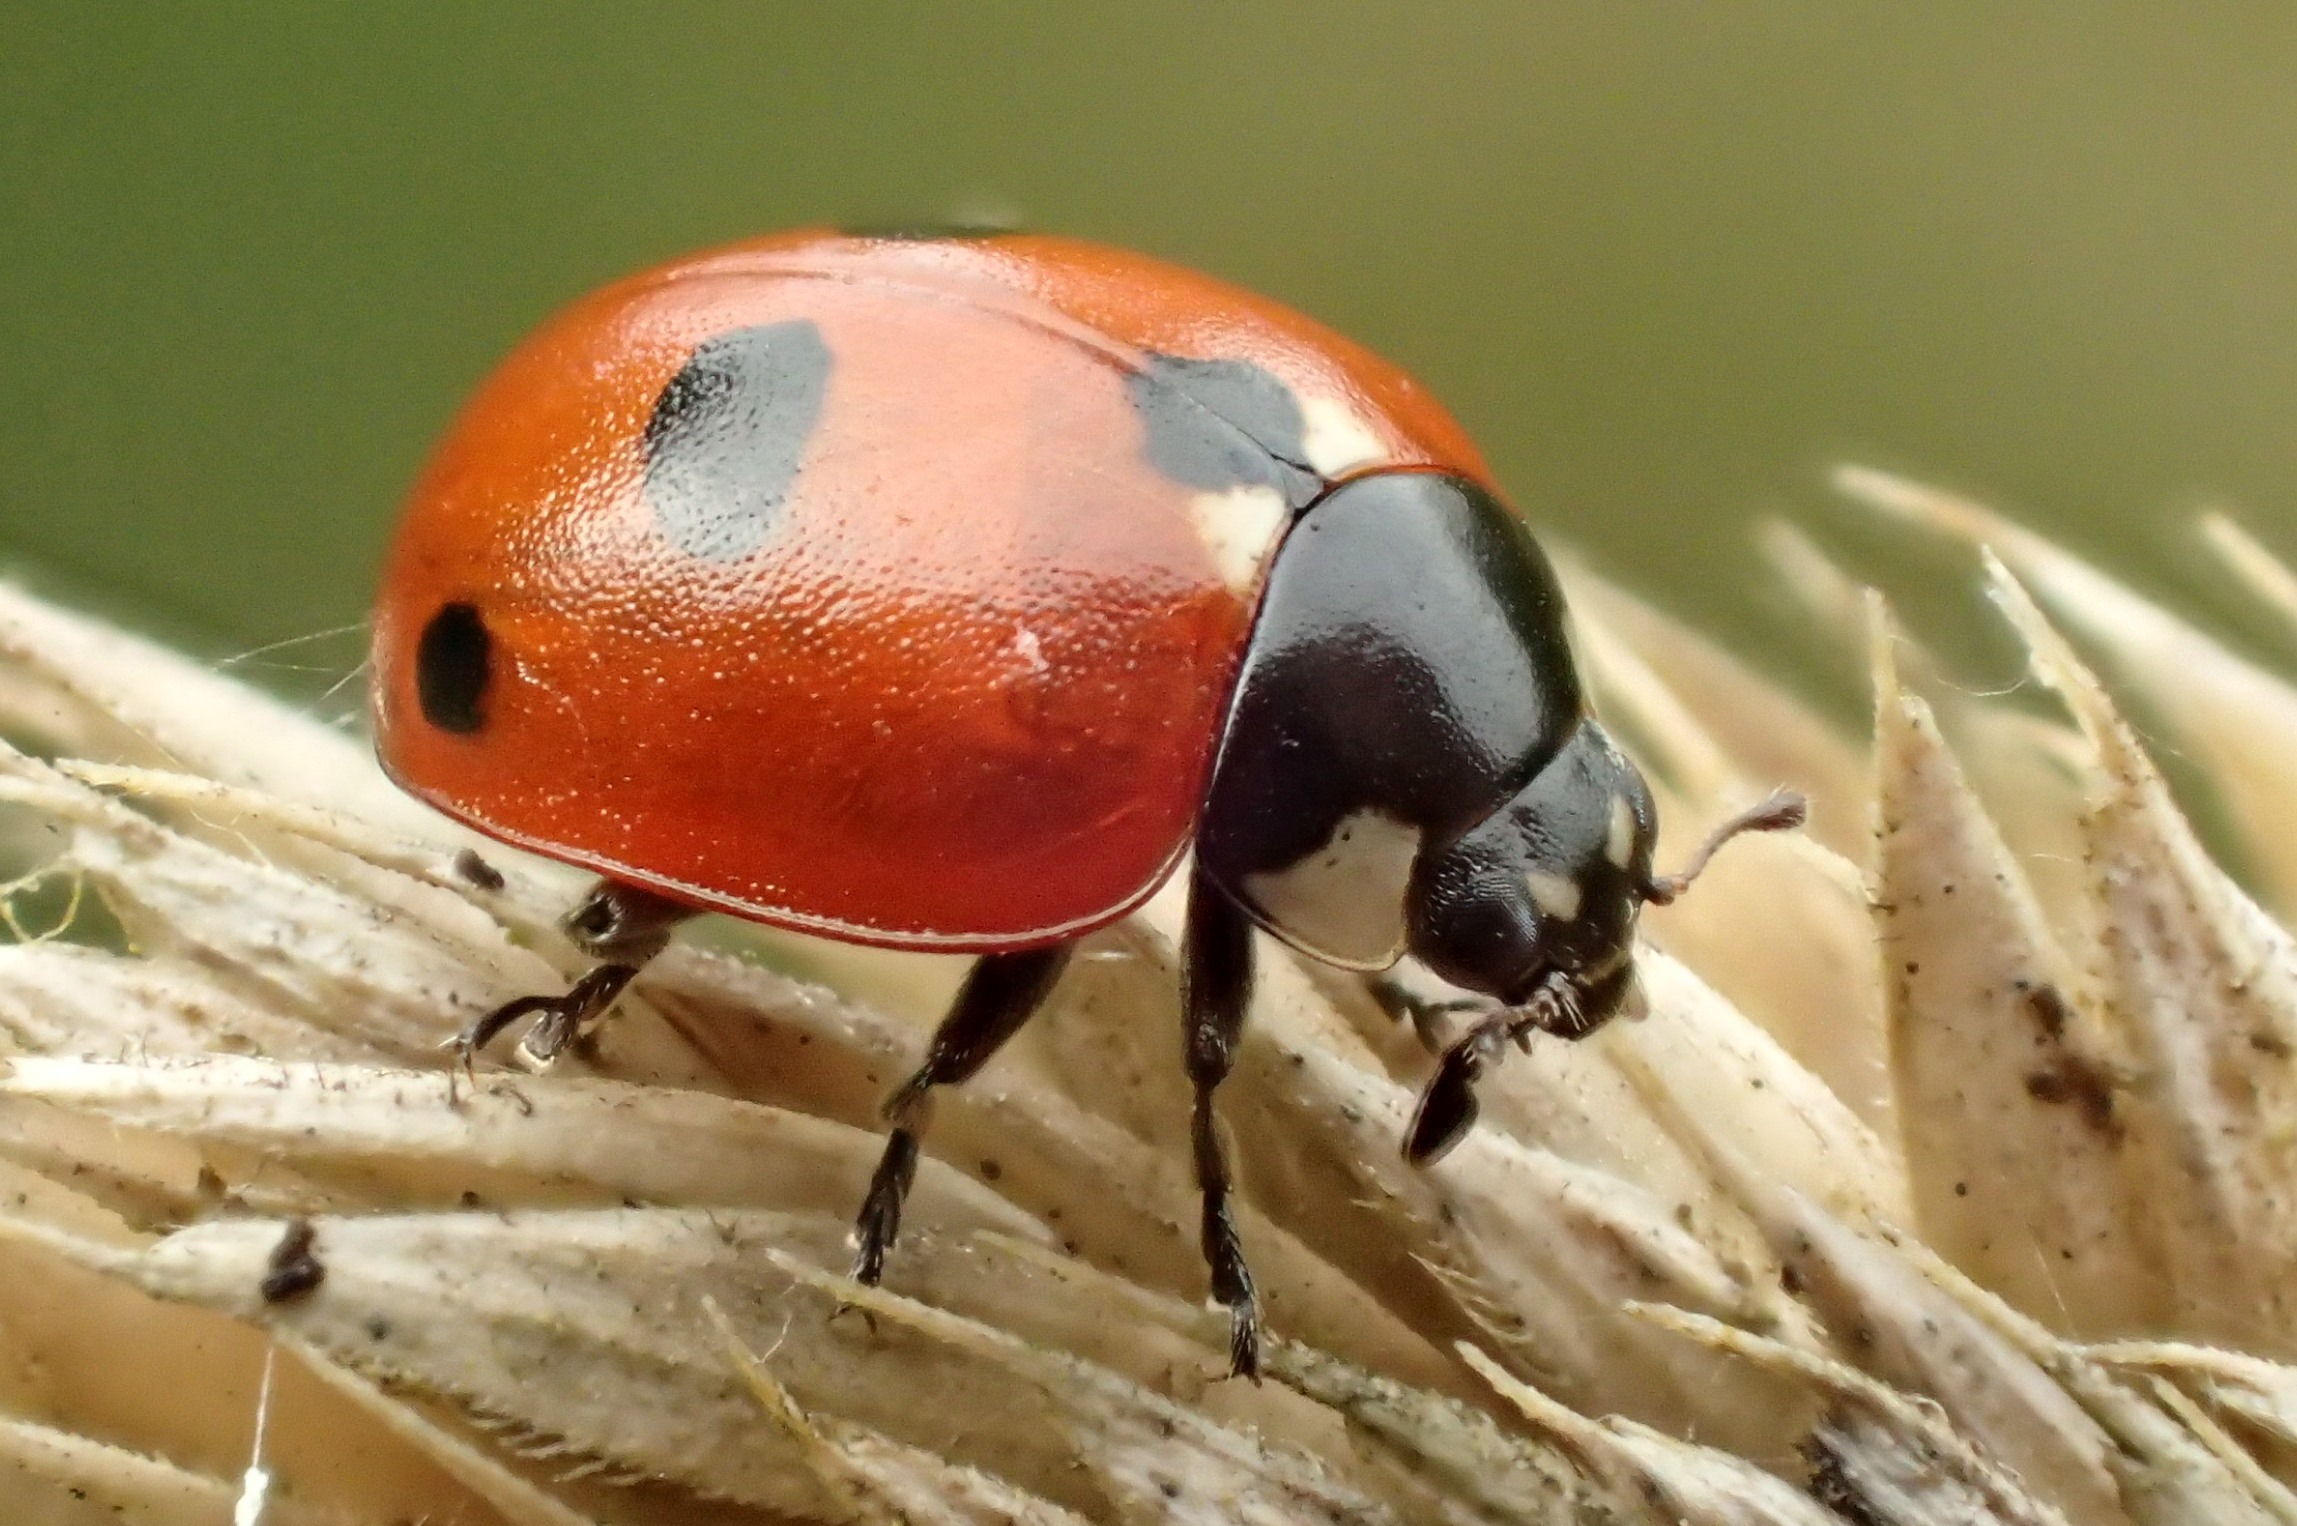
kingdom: Animalia
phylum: Arthropoda
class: Insecta
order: Coleoptera
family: Coccinellidae
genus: Coccinella
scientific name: Coccinella quinquepunctata
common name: Femplettet mariehøne
